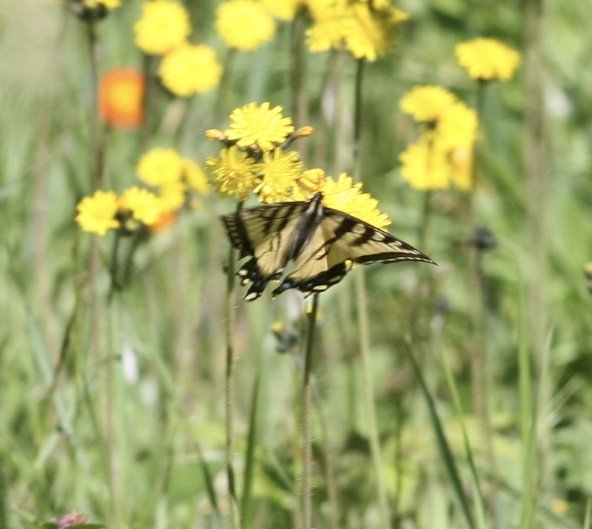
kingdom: Animalia
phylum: Arthropoda
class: Insecta
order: Lepidoptera
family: Papilionidae
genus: Pterourus
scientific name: Pterourus canadensis
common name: Canadian Tiger Swallowtail
